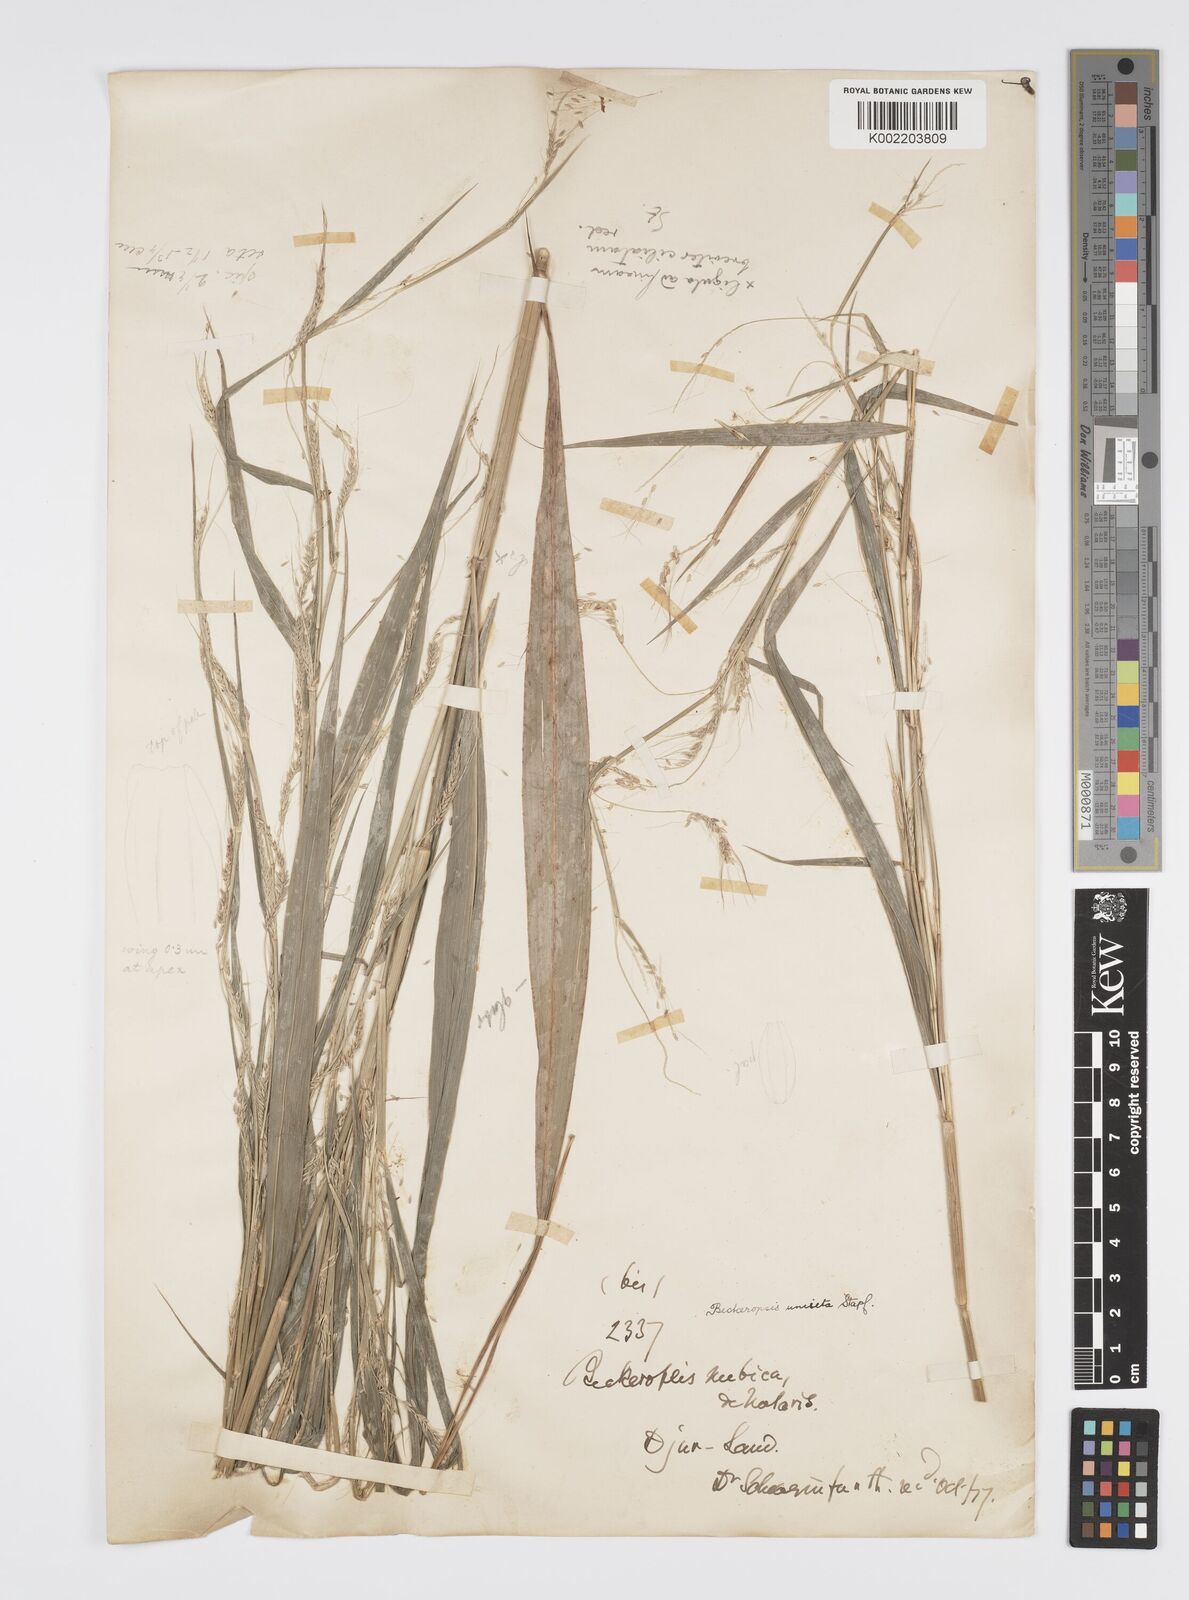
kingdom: Plantae
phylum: Tracheophyta
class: Liliopsida
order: Poales
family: Poaceae
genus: Cenchrus
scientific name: Cenchrus unisetus
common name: Natal grass
